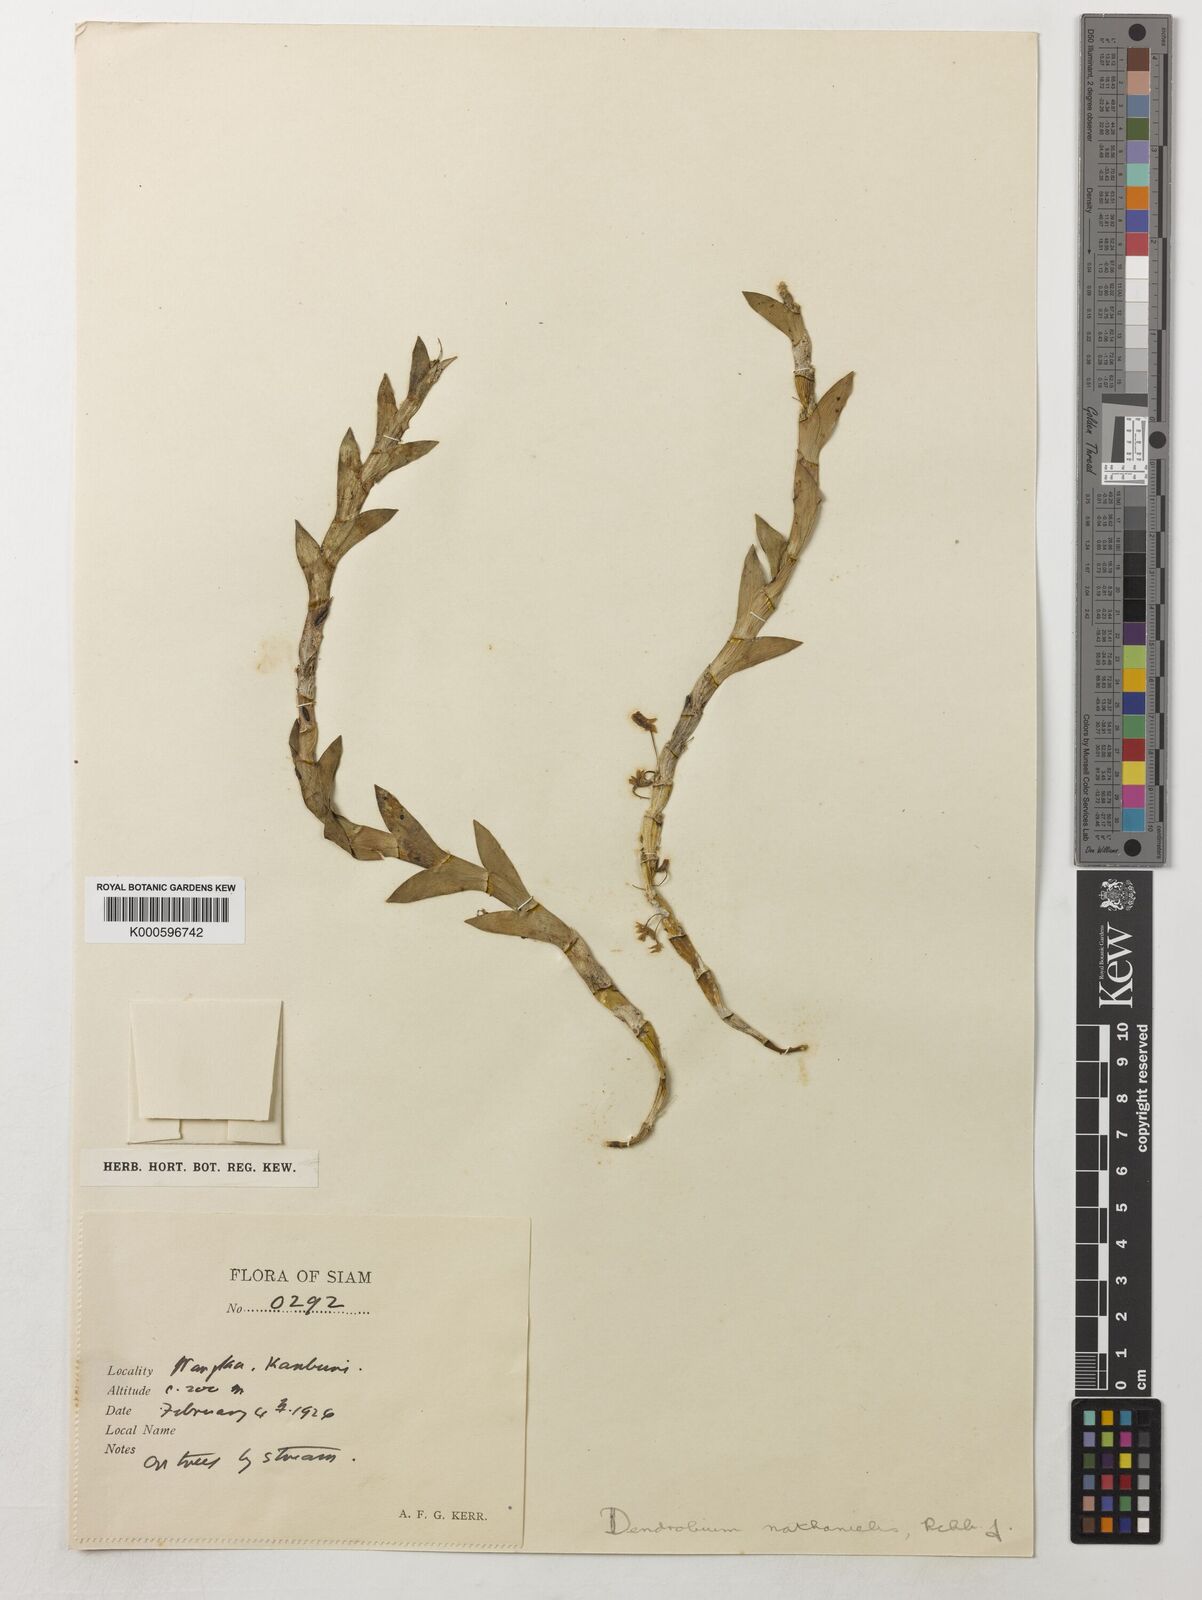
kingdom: Plantae
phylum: Tracheophyta
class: Liliopsida
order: Asparagales
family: Orchidaceae
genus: Dendrobium
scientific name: Dendrobium nathanielis
